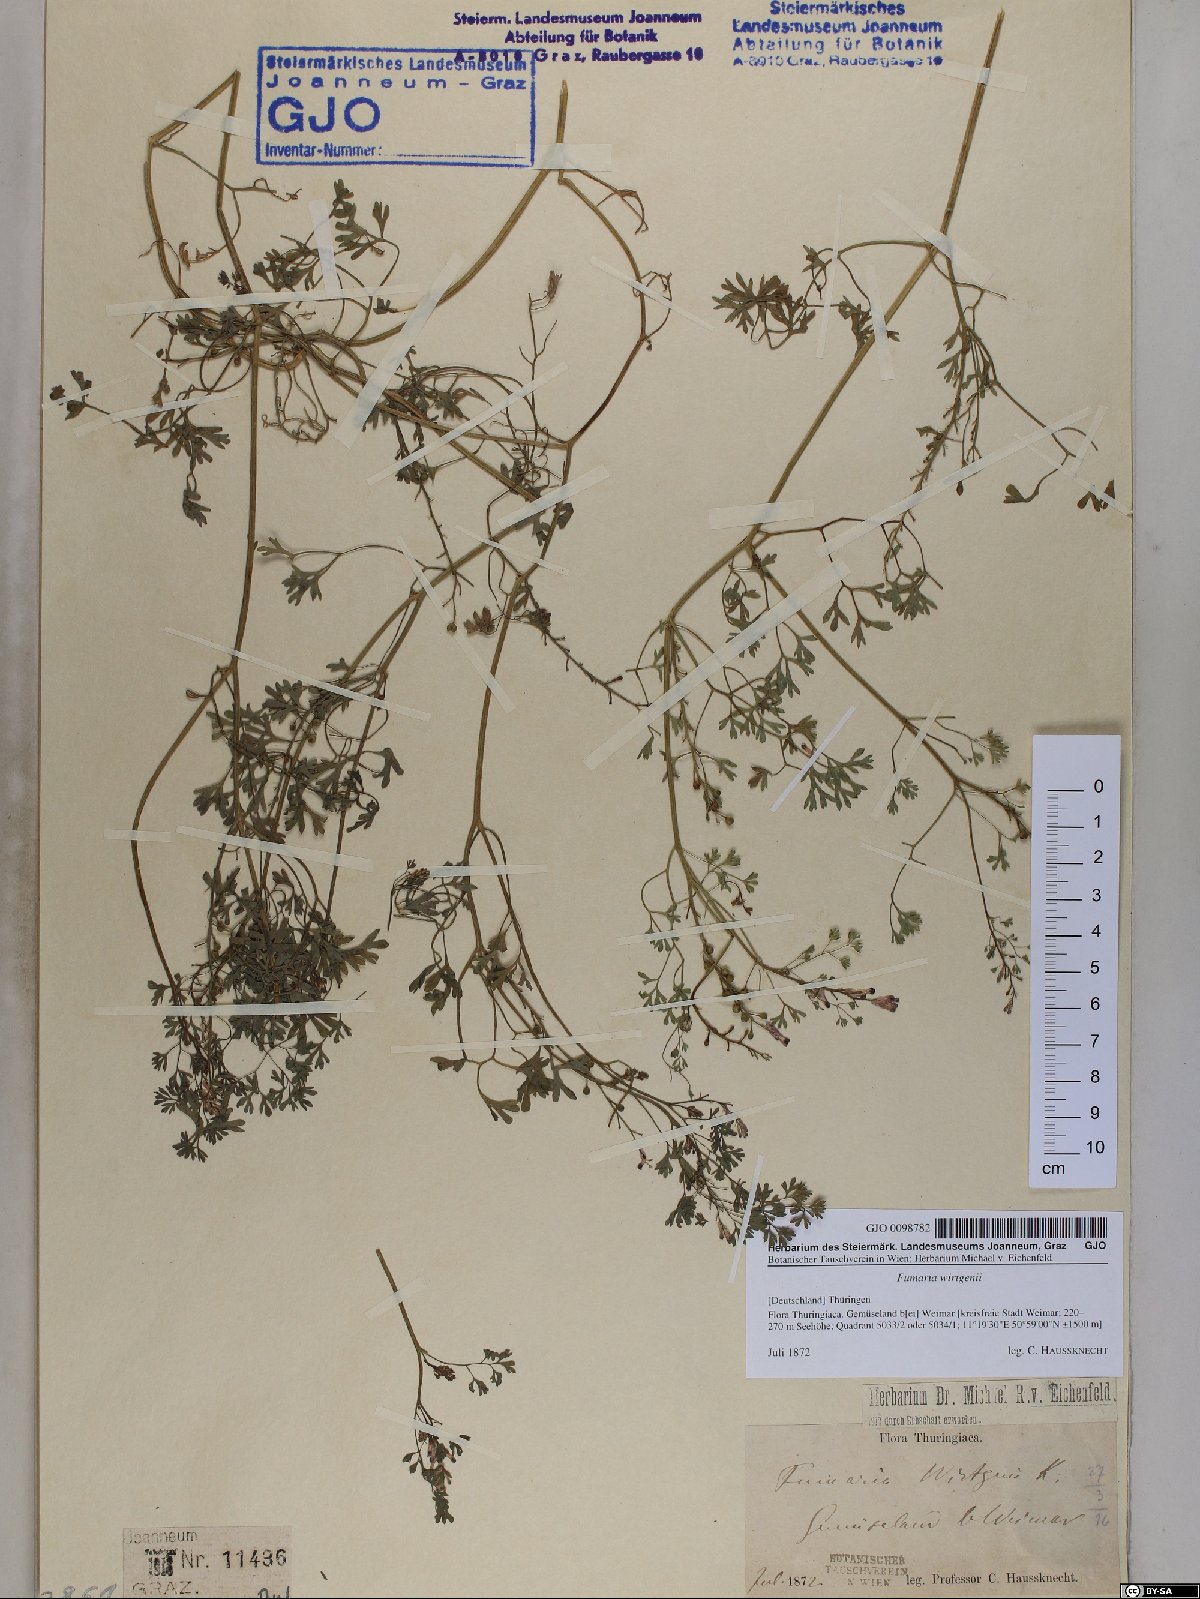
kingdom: Plantae
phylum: Tracheophyta
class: Magnoliopsida
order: Ranunculales
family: Papaveraceae
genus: Fumaria
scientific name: Fumaria wirtgenii
